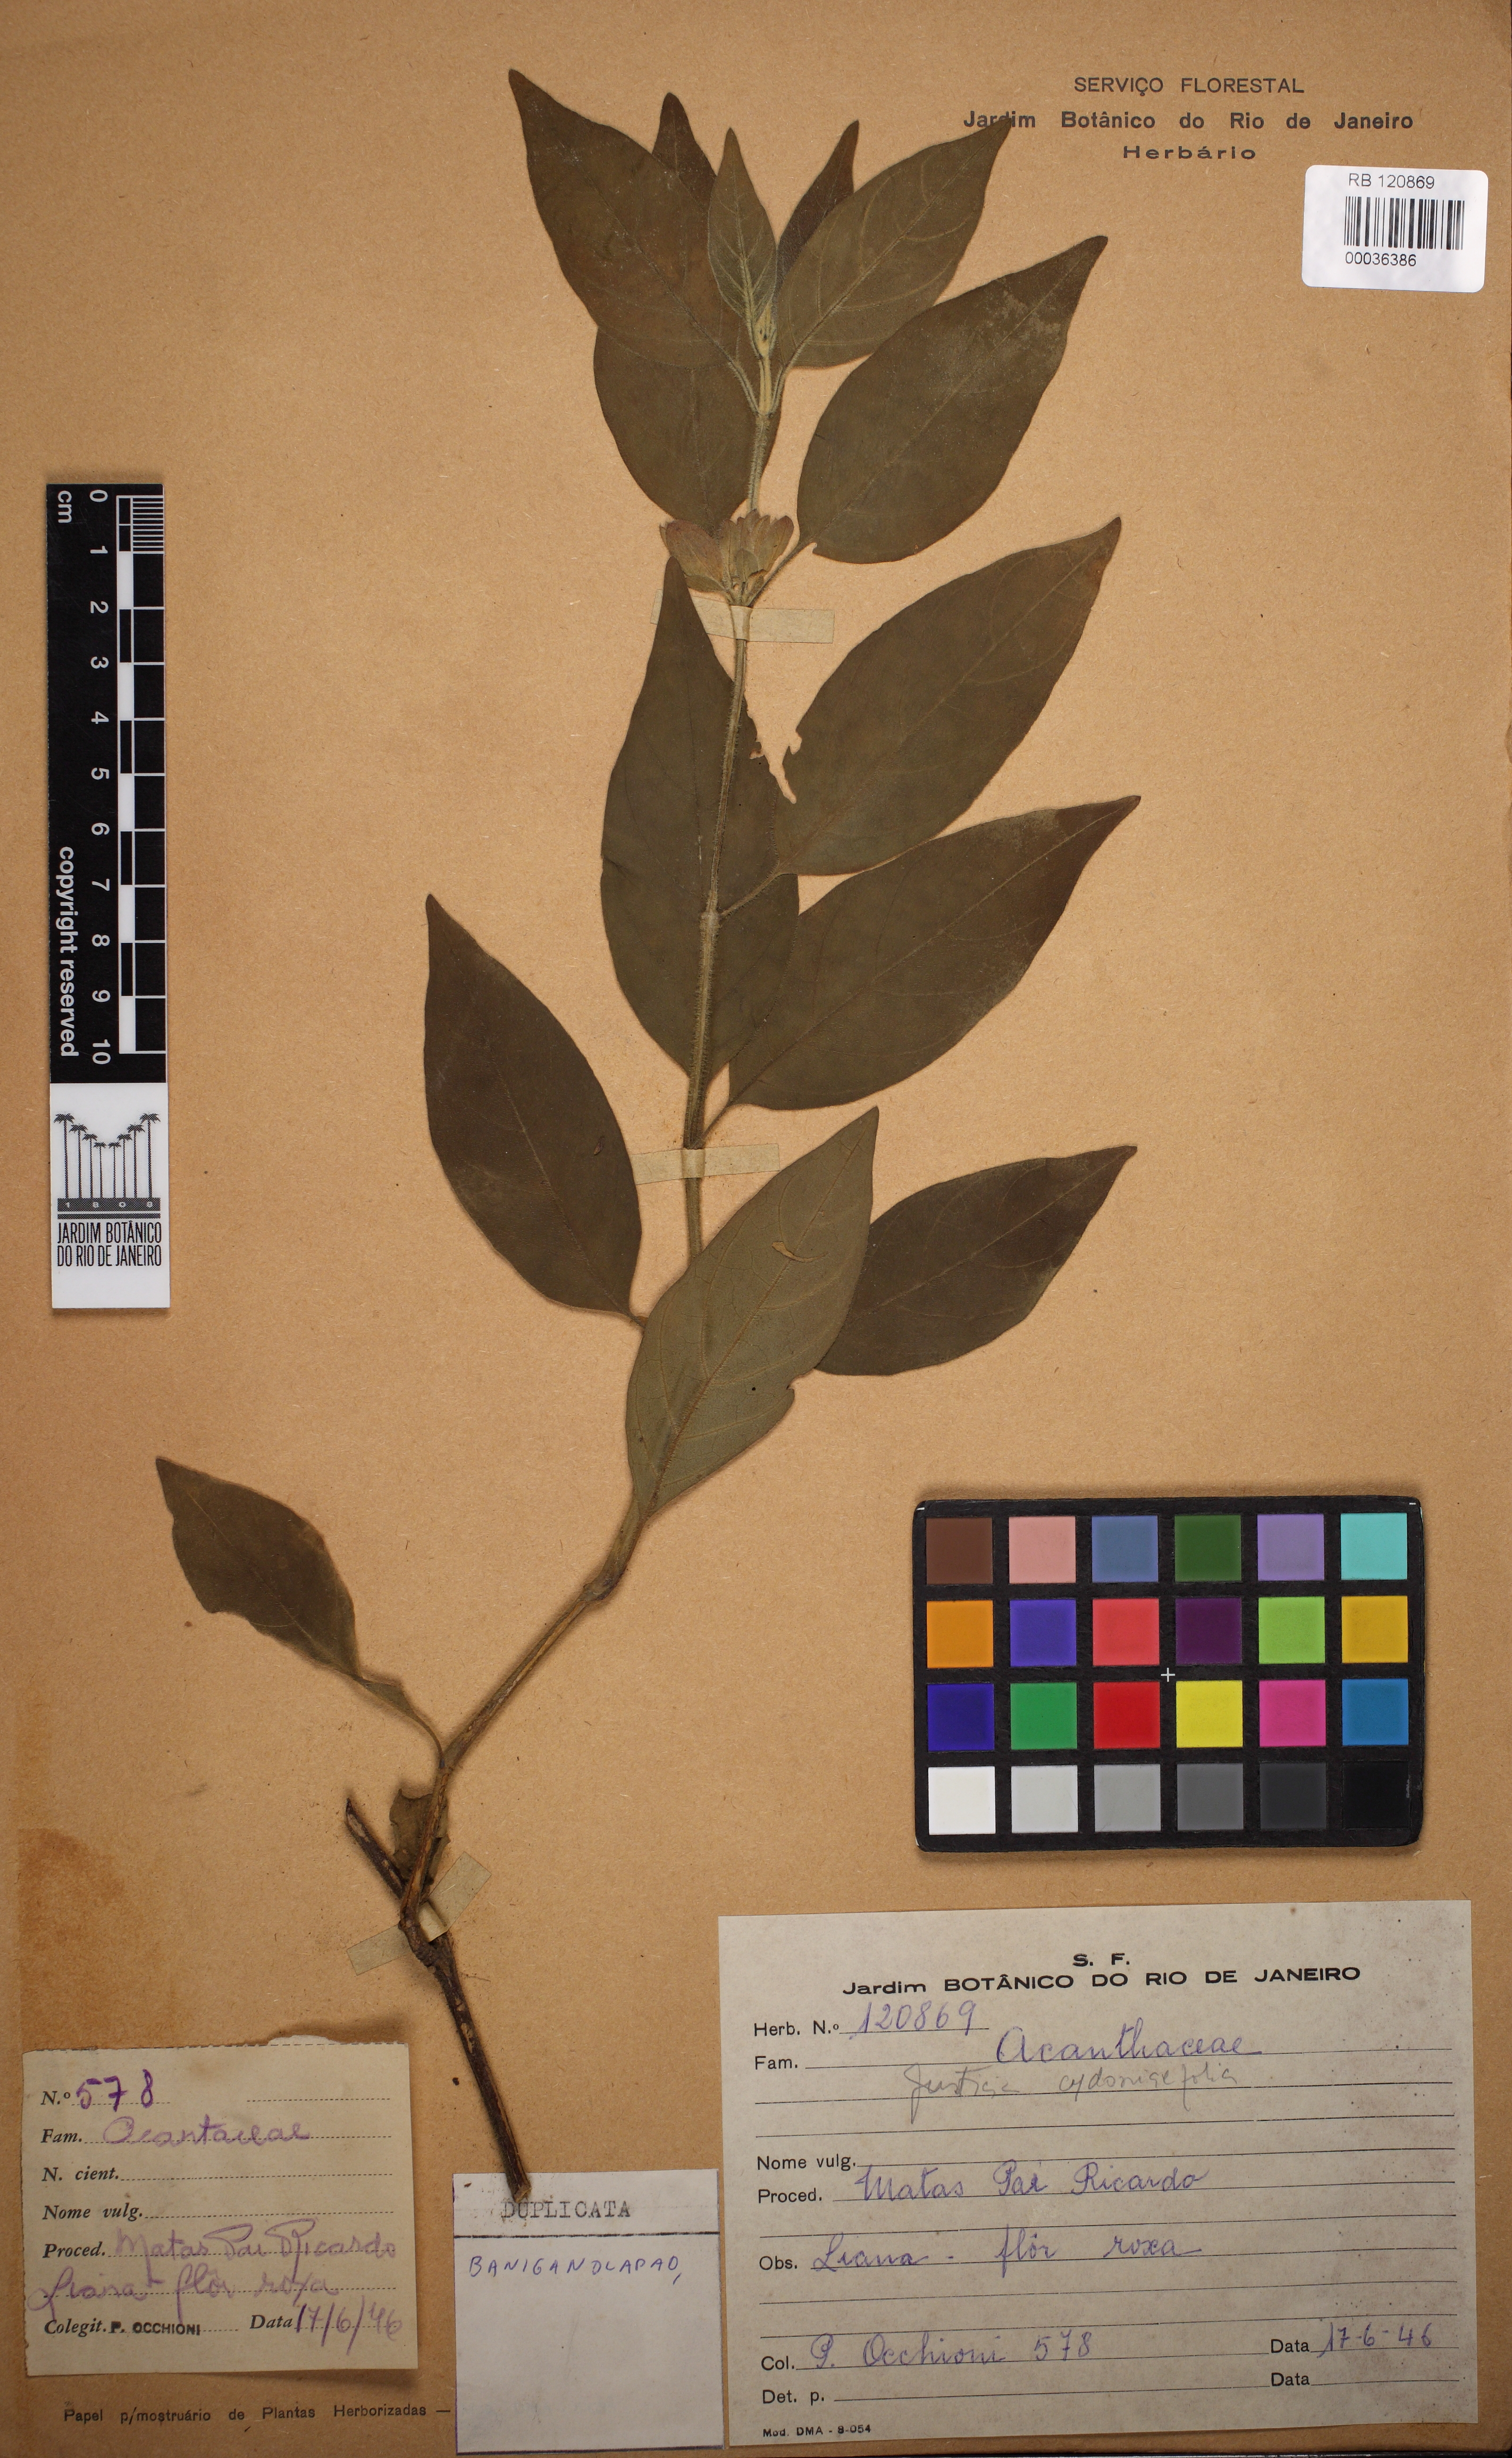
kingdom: Plantae
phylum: Tracheophyta
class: Magnoliopsida
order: Lamiales
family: Acanthaceae
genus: Justicia
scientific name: Justicia cydoniifolia
